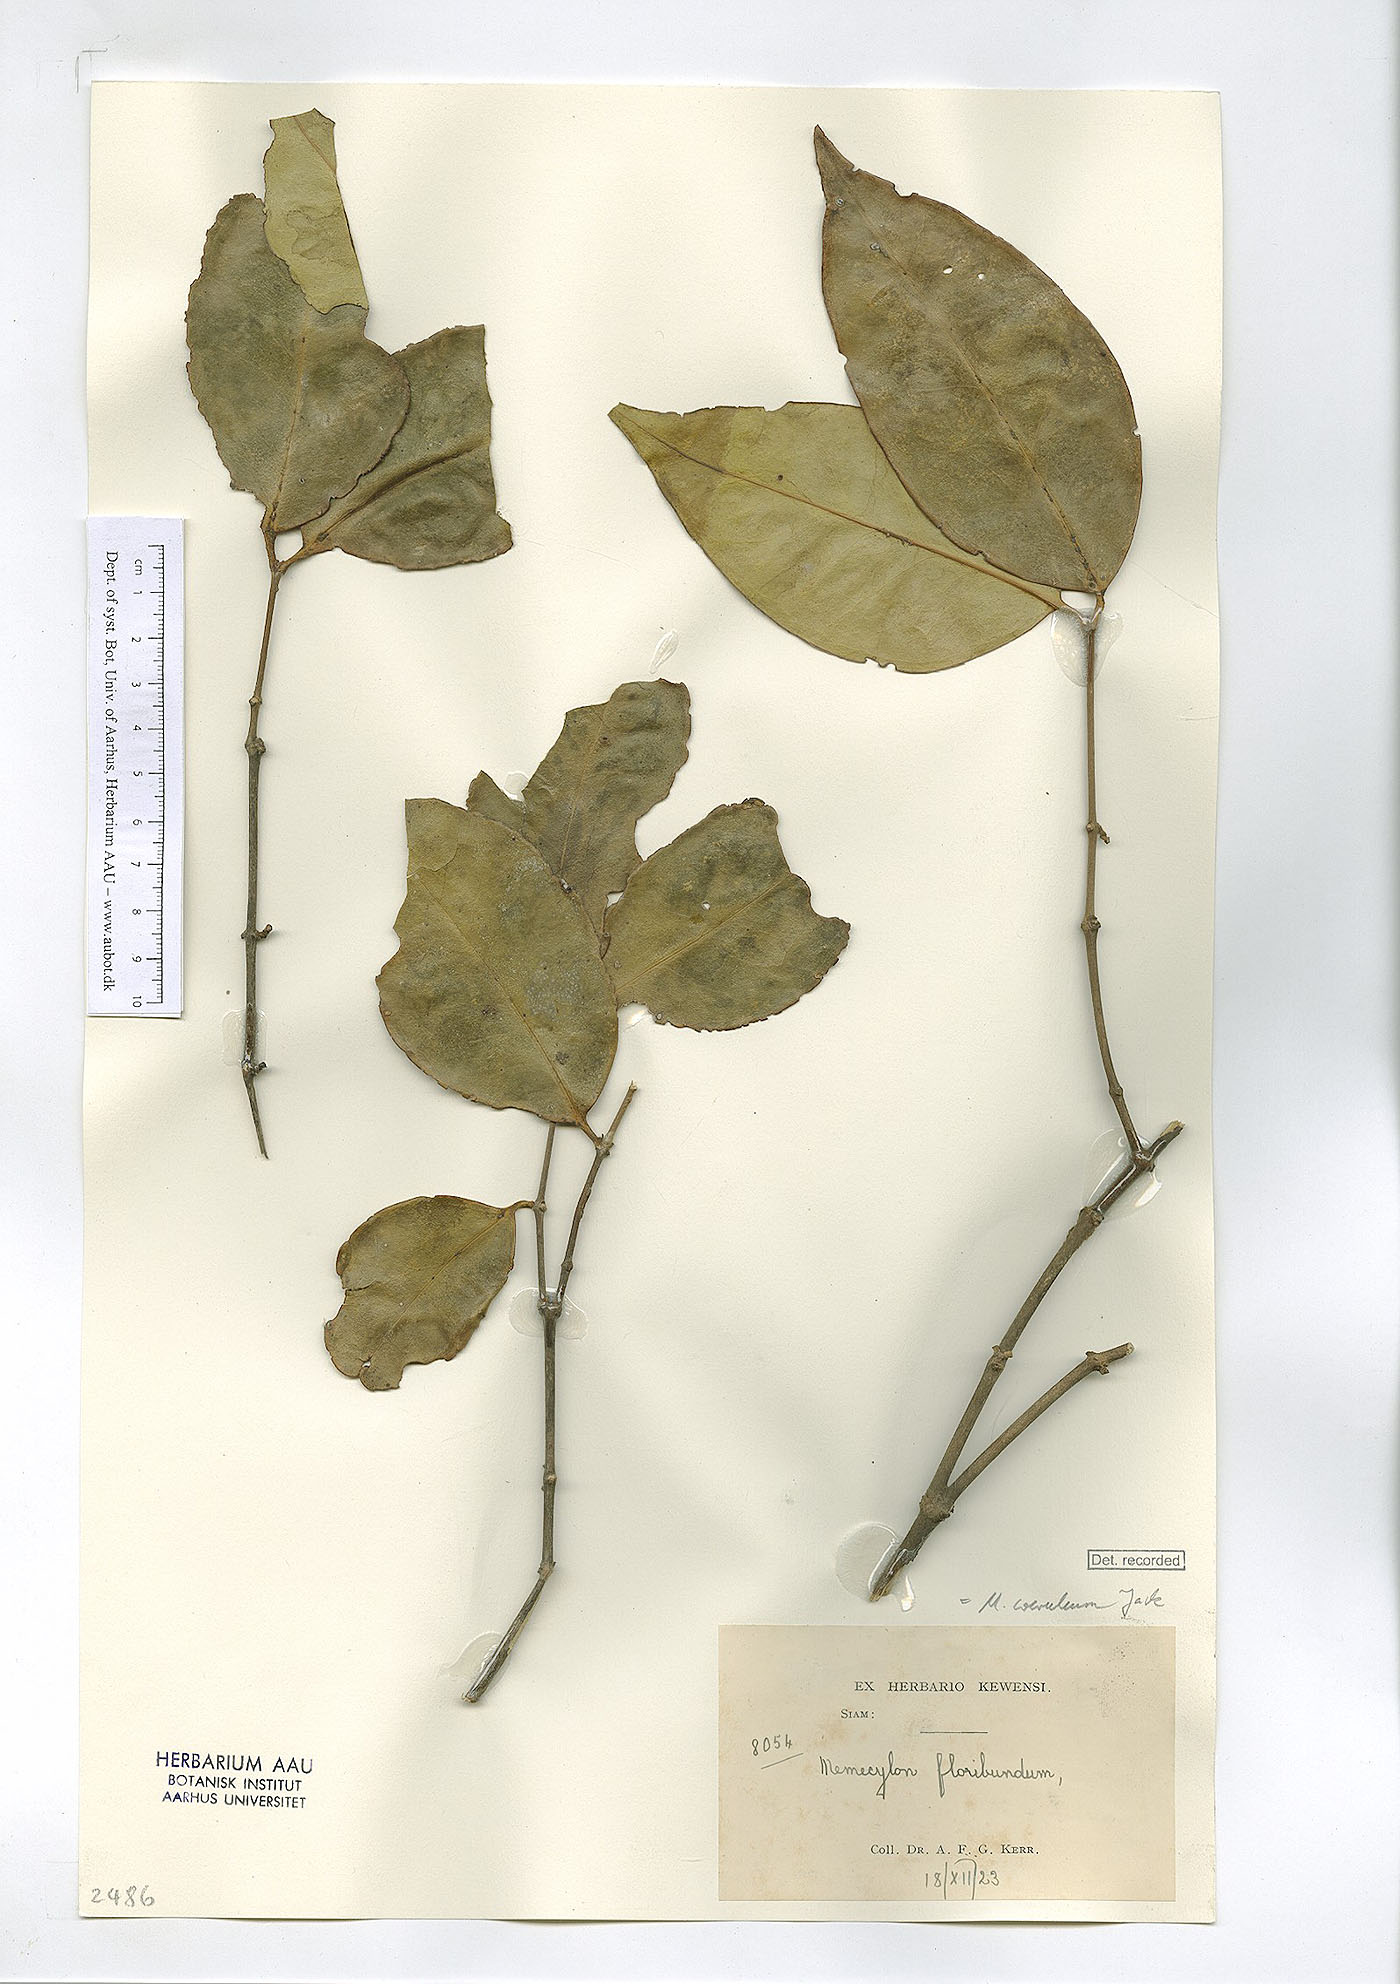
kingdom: Plantae
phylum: Tracheophyta
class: Magnoliopsida
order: Myrtales
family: Melastomataceae
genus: Memecylon
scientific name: Memecylon caeruleum
